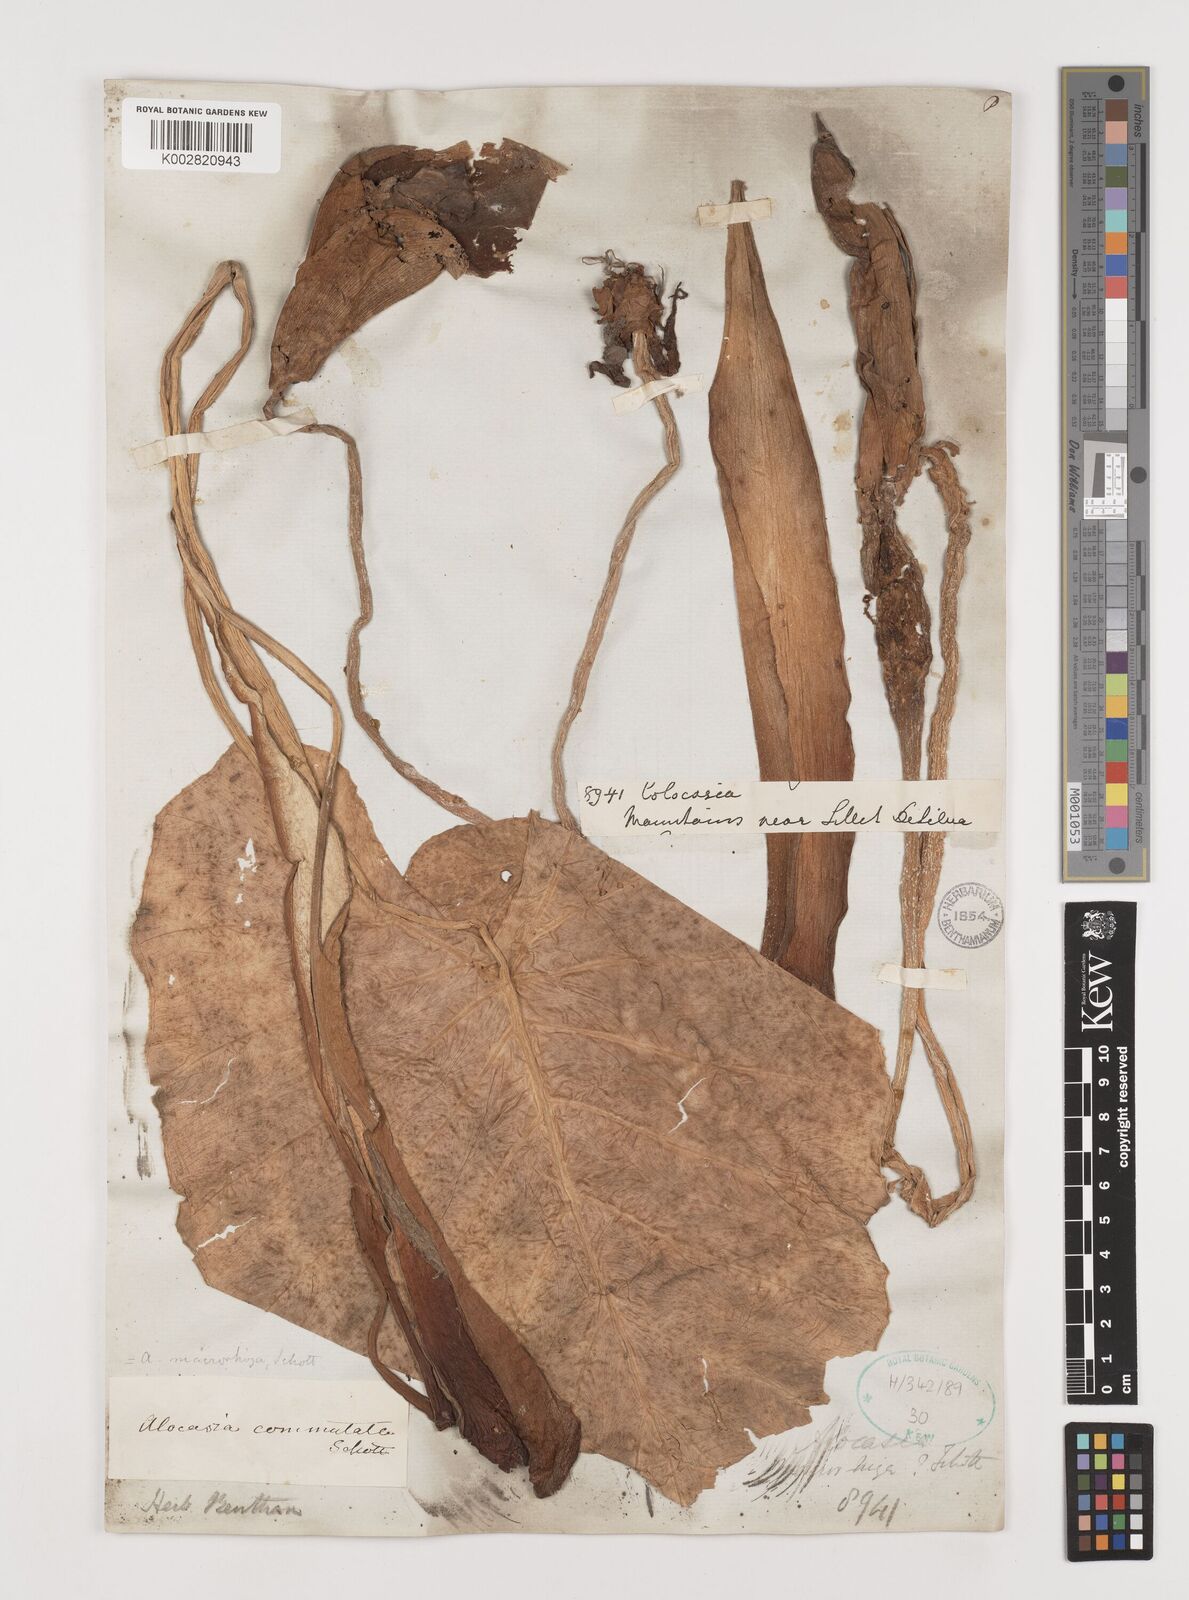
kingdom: Plantae
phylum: Tracheophyta
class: Liliopsida
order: Alismatales
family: Araceae
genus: Alocasia
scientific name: Alocasia macrorrhizos
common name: Giant taro
